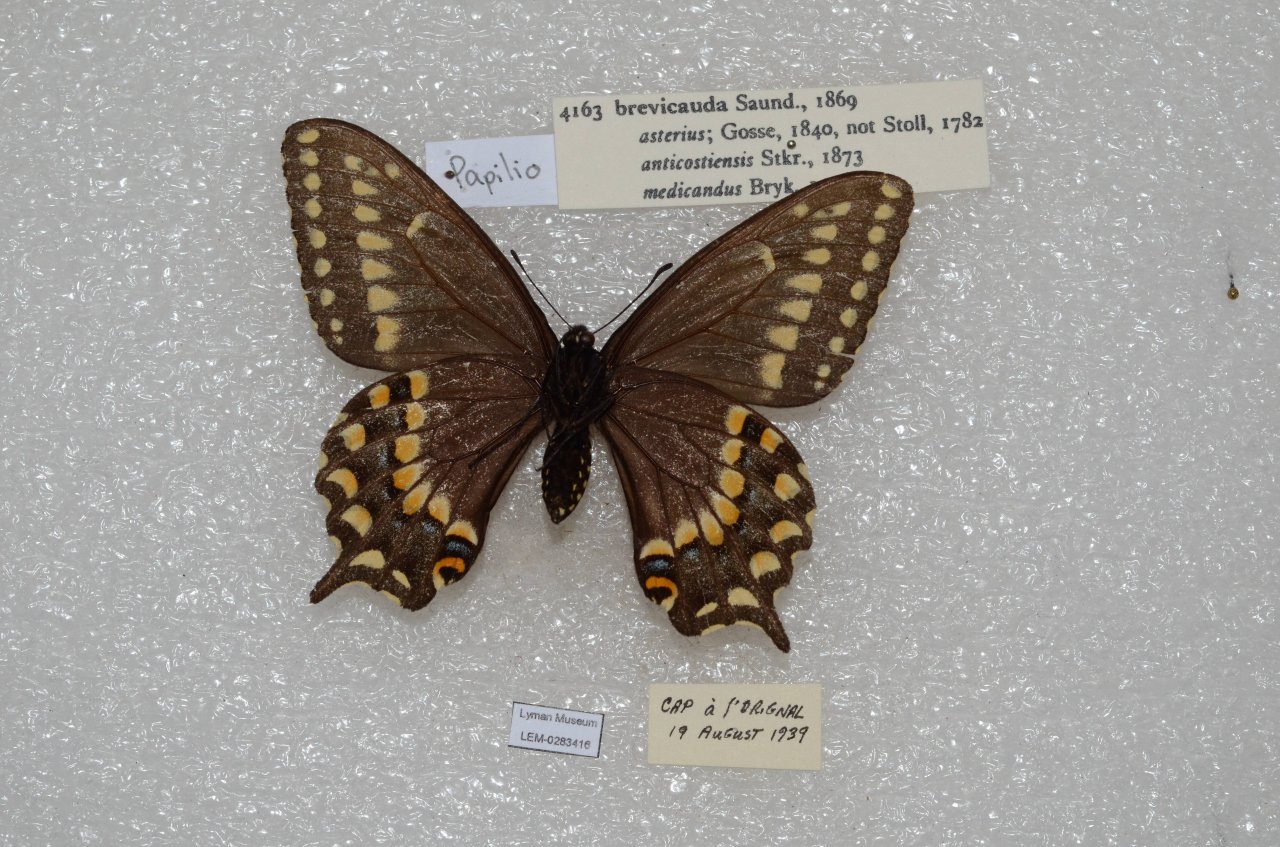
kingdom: Animalia
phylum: Arthropoda
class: Insecta
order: Lepidoptera
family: Papilionidae
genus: Papilio
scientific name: Papilio brevicauda
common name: Short-tailed Swallowtail
